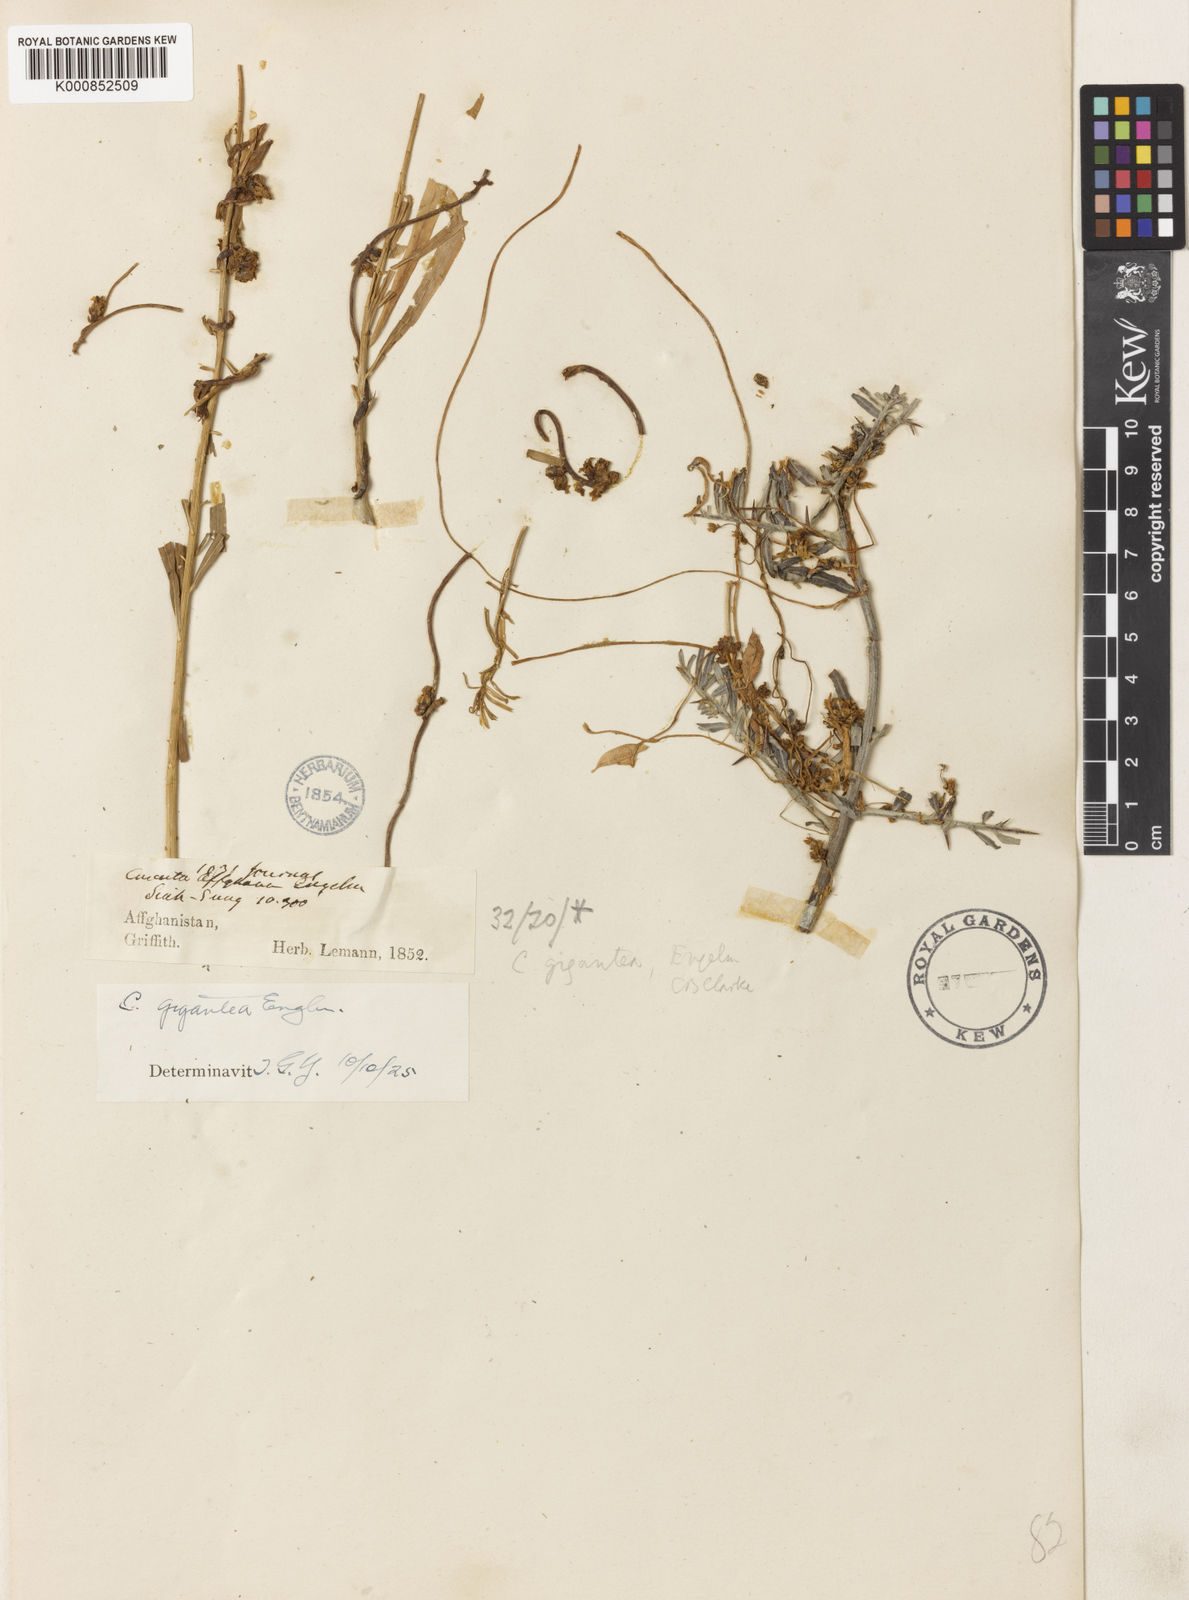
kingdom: Plantae
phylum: Tracheophyta
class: Magnoliopsida
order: Solanales
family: Convolvulaceae
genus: Cuscuta
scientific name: Cuscuta
